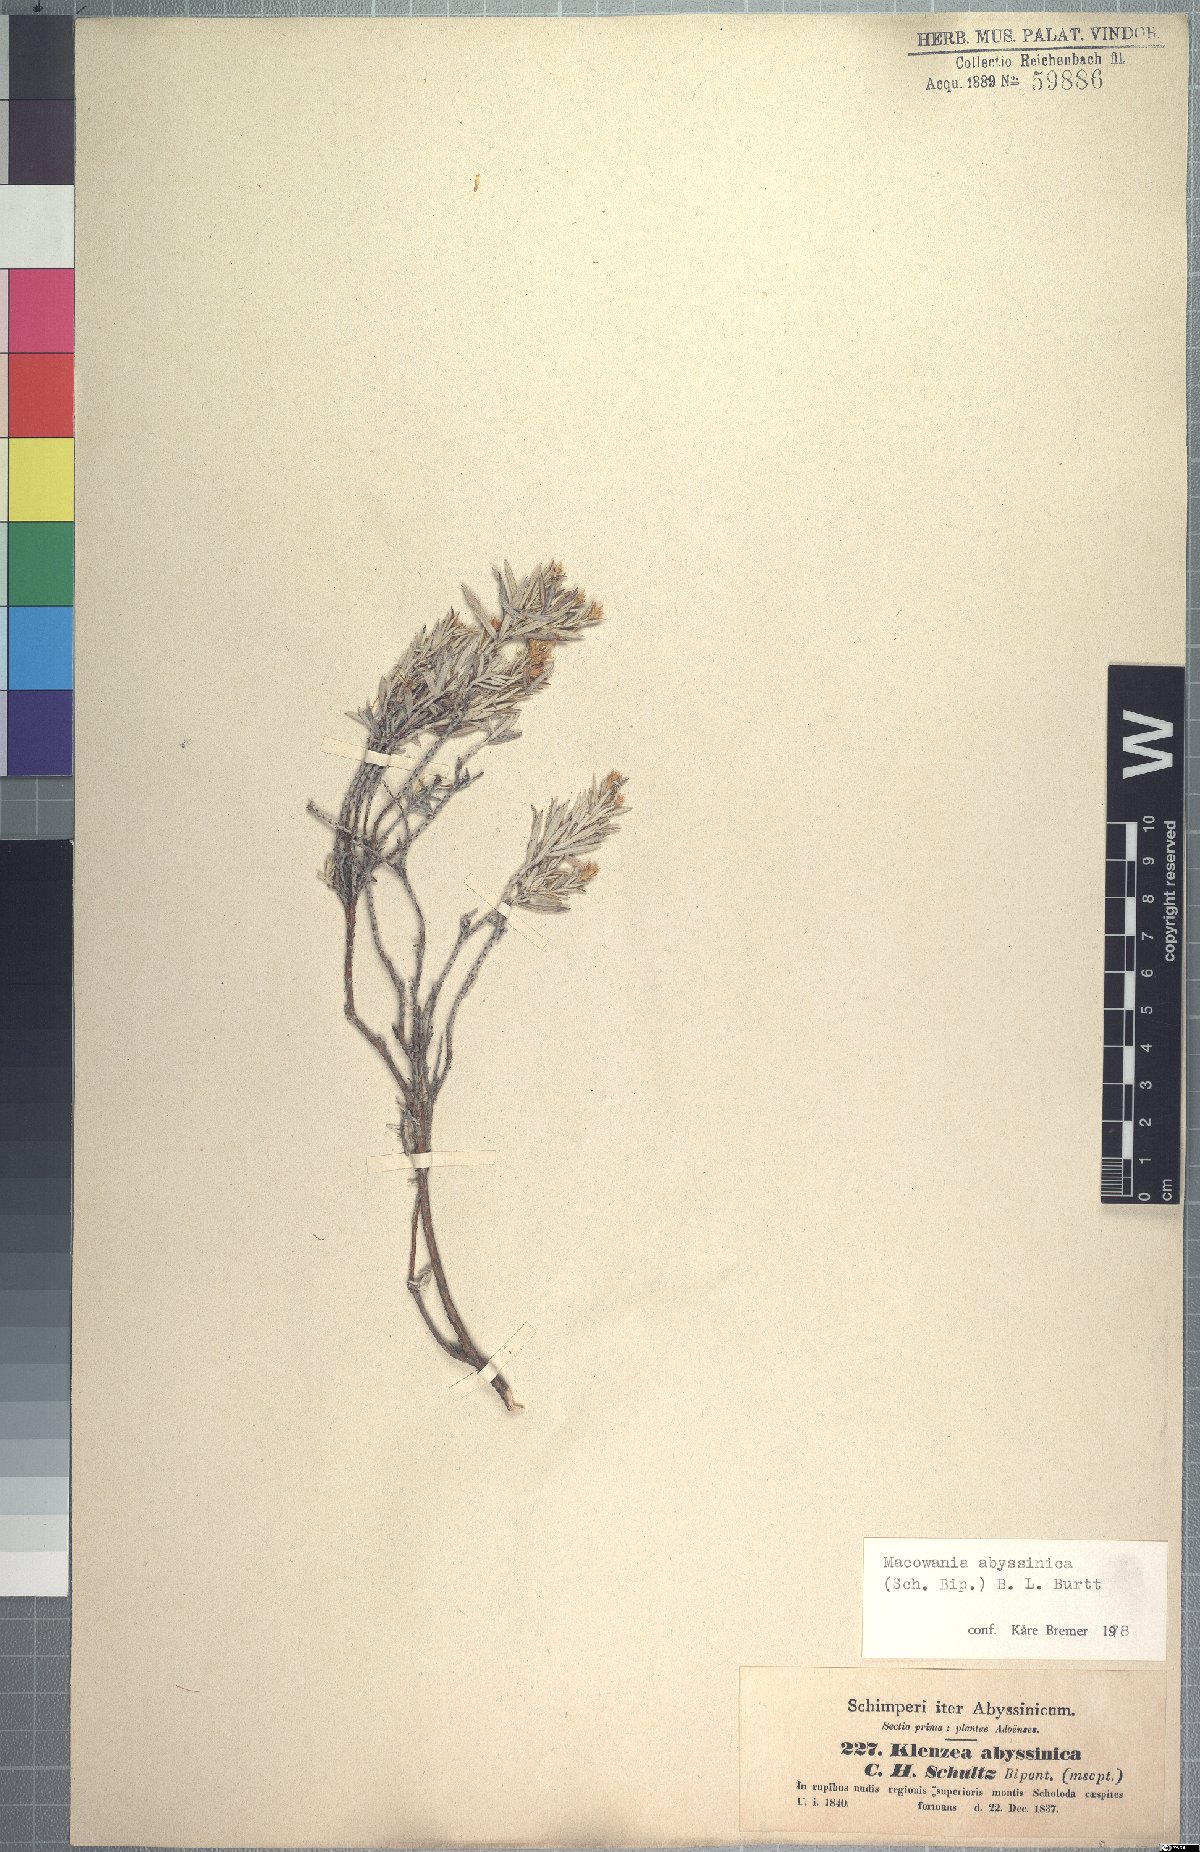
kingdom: Plantae
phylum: Tracheophyta
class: Magnoliopsida
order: Asterales
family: Asteraceae
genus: Arrowsmithia
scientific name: Arrowsmithia abyssinica
